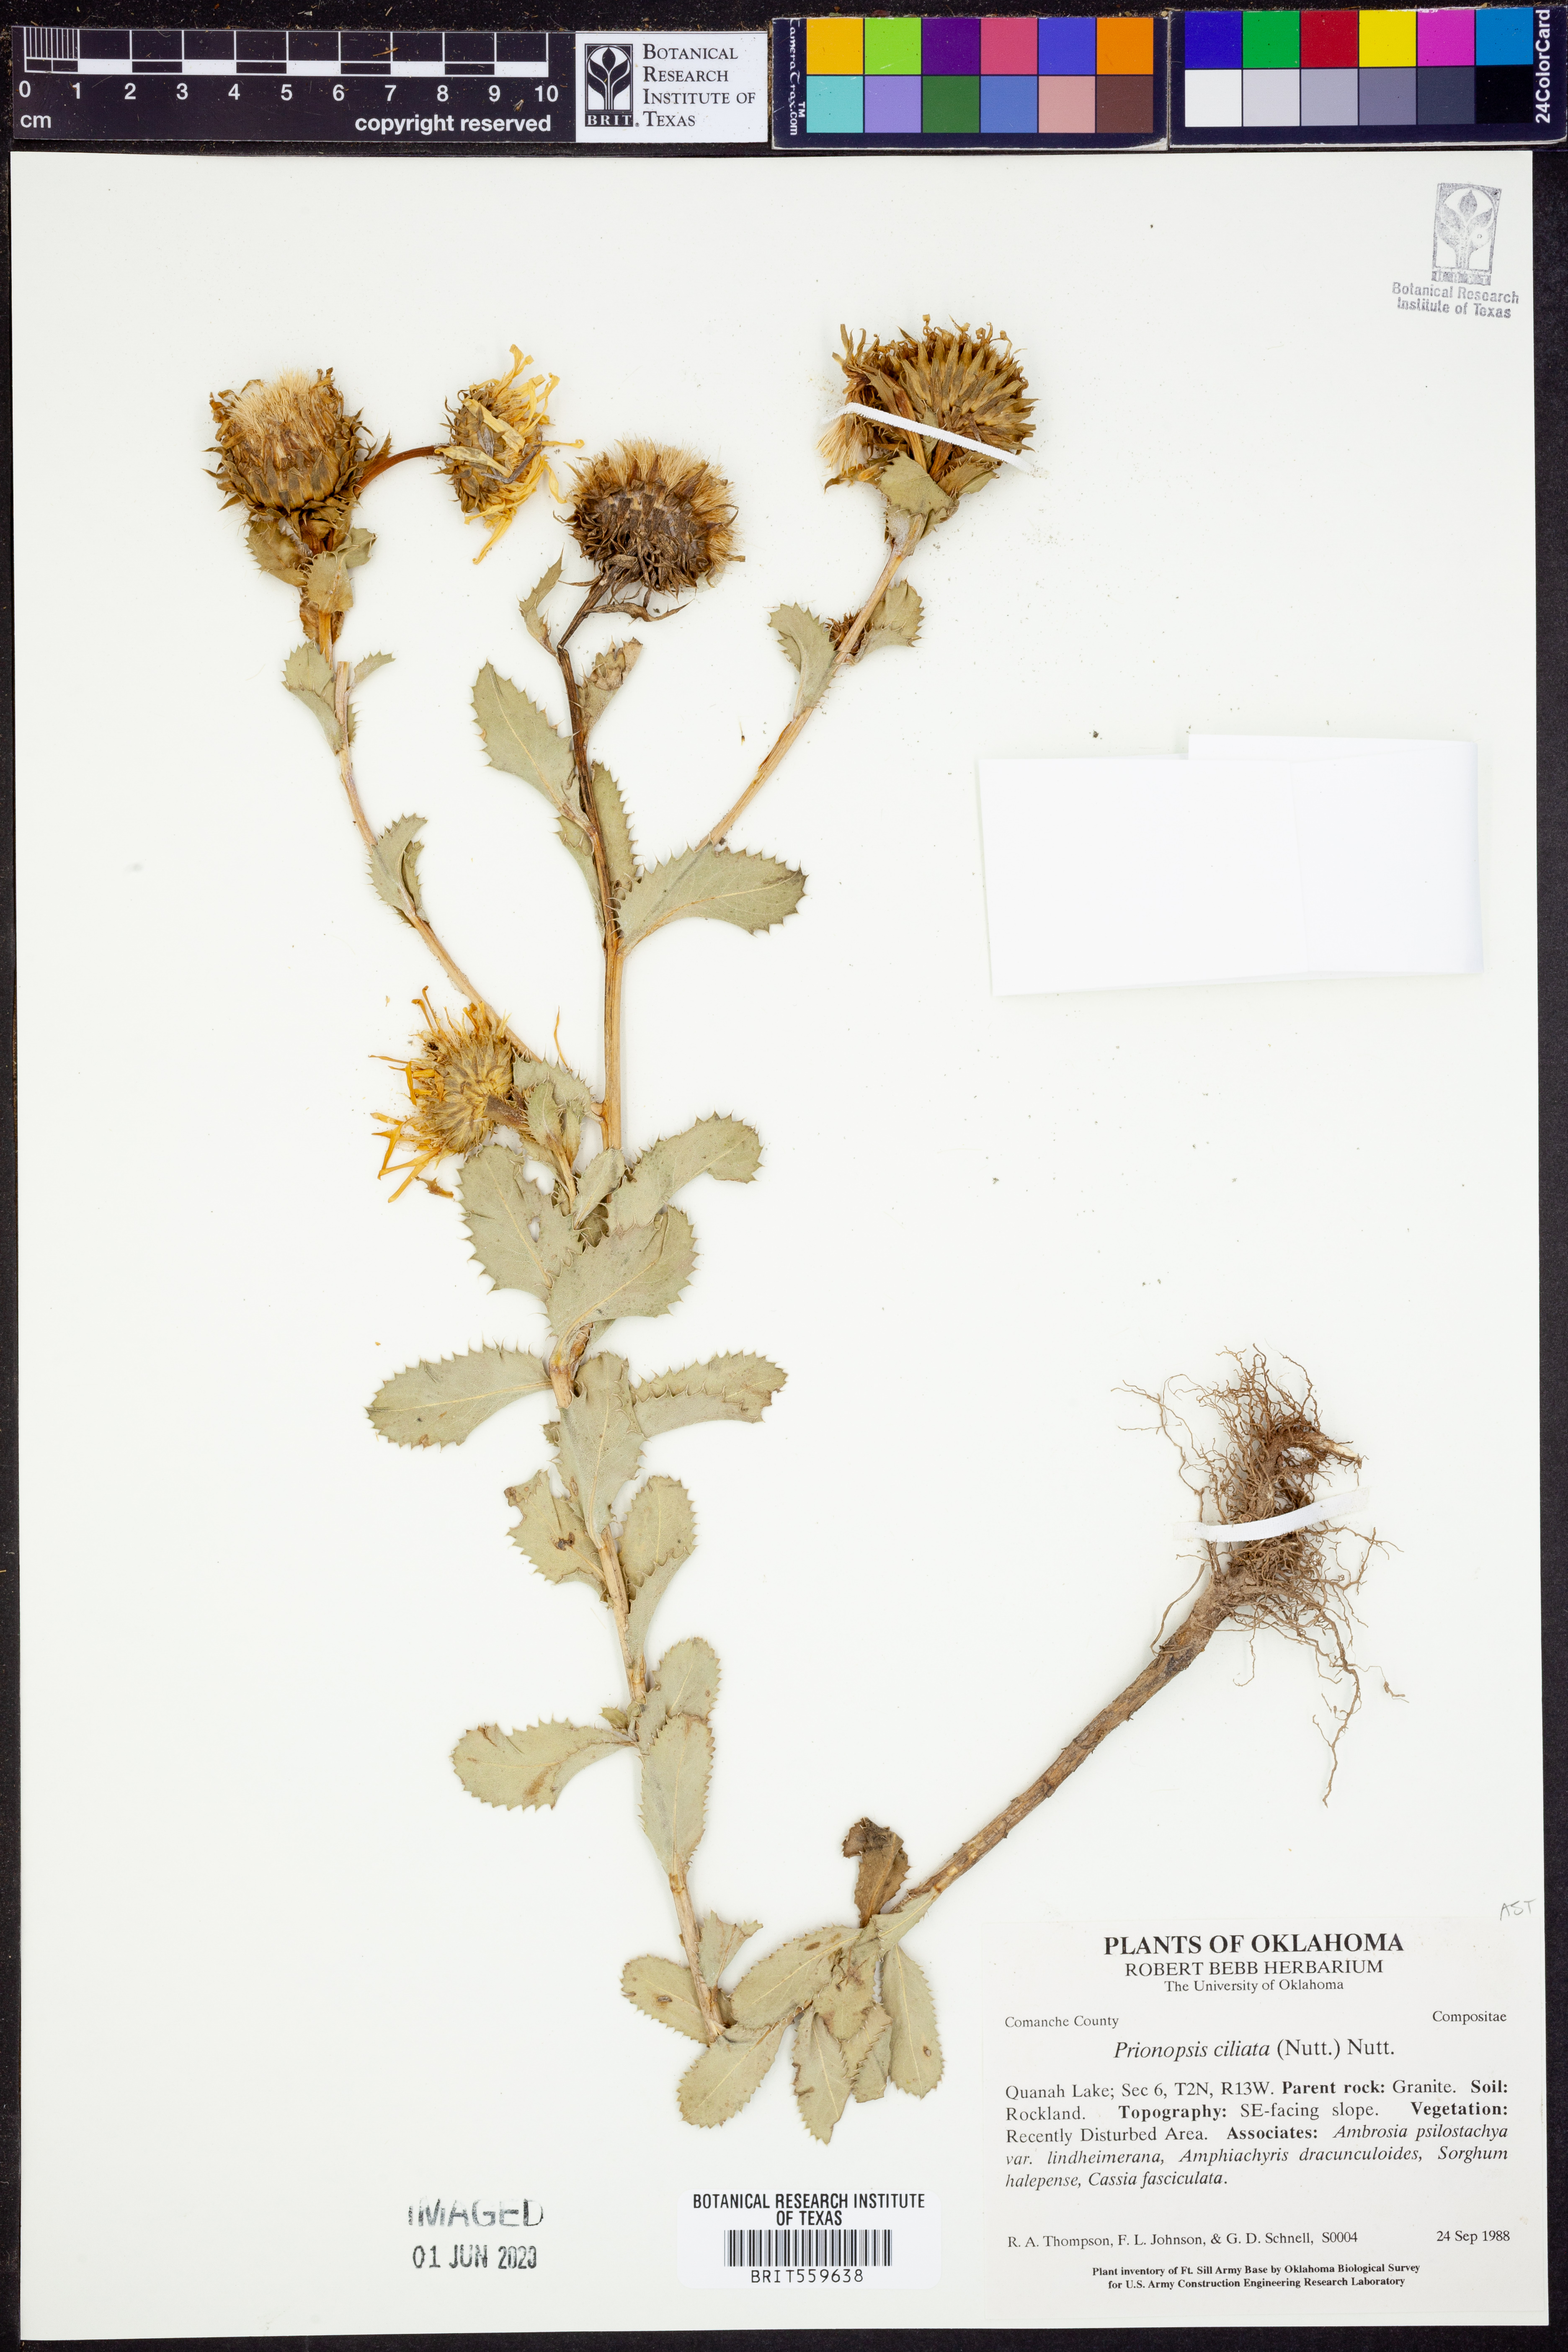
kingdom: Plantae
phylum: Tracheophyta
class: Magnoliopsida
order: Asterales
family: Asteraceae
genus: Grindelia
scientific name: Grindelia ciliata
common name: Goldenweed
